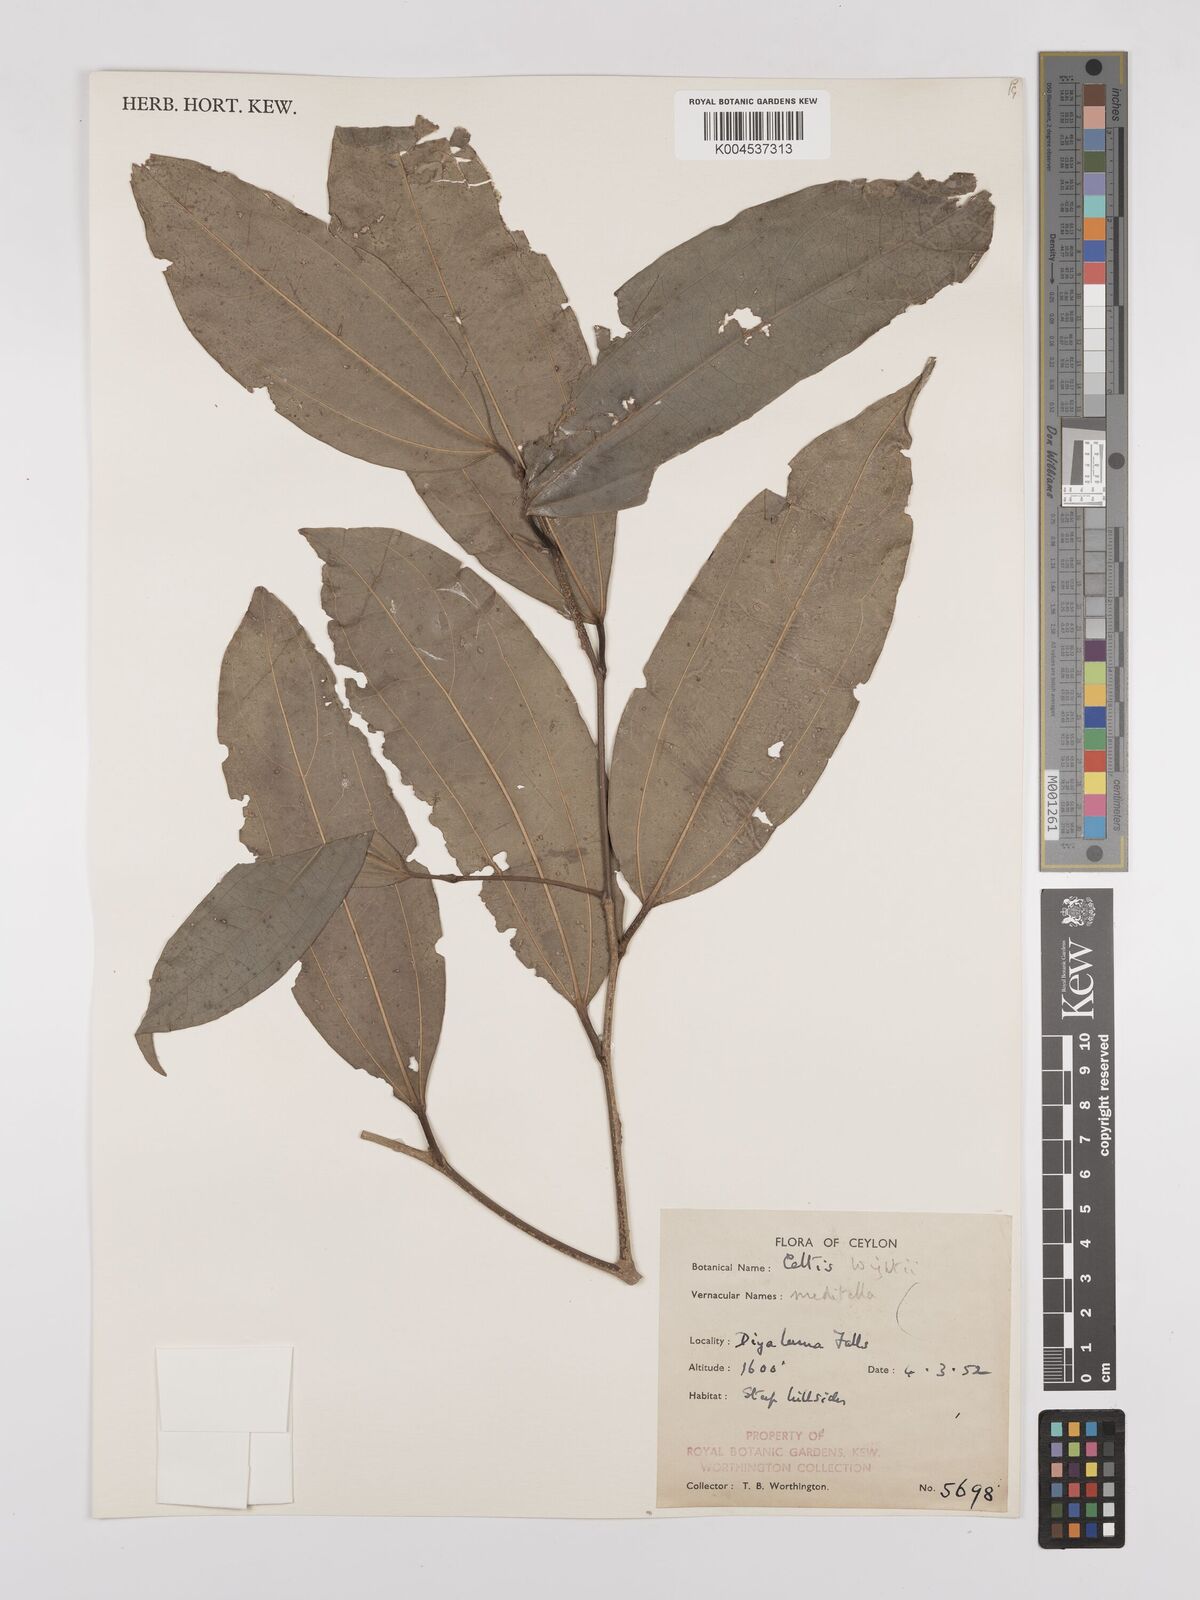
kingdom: Plantae
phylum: Tracheophyta
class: Magnoliopsida
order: Rosales
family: Cannabaceae
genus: Celtis
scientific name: Celtis philippensis
